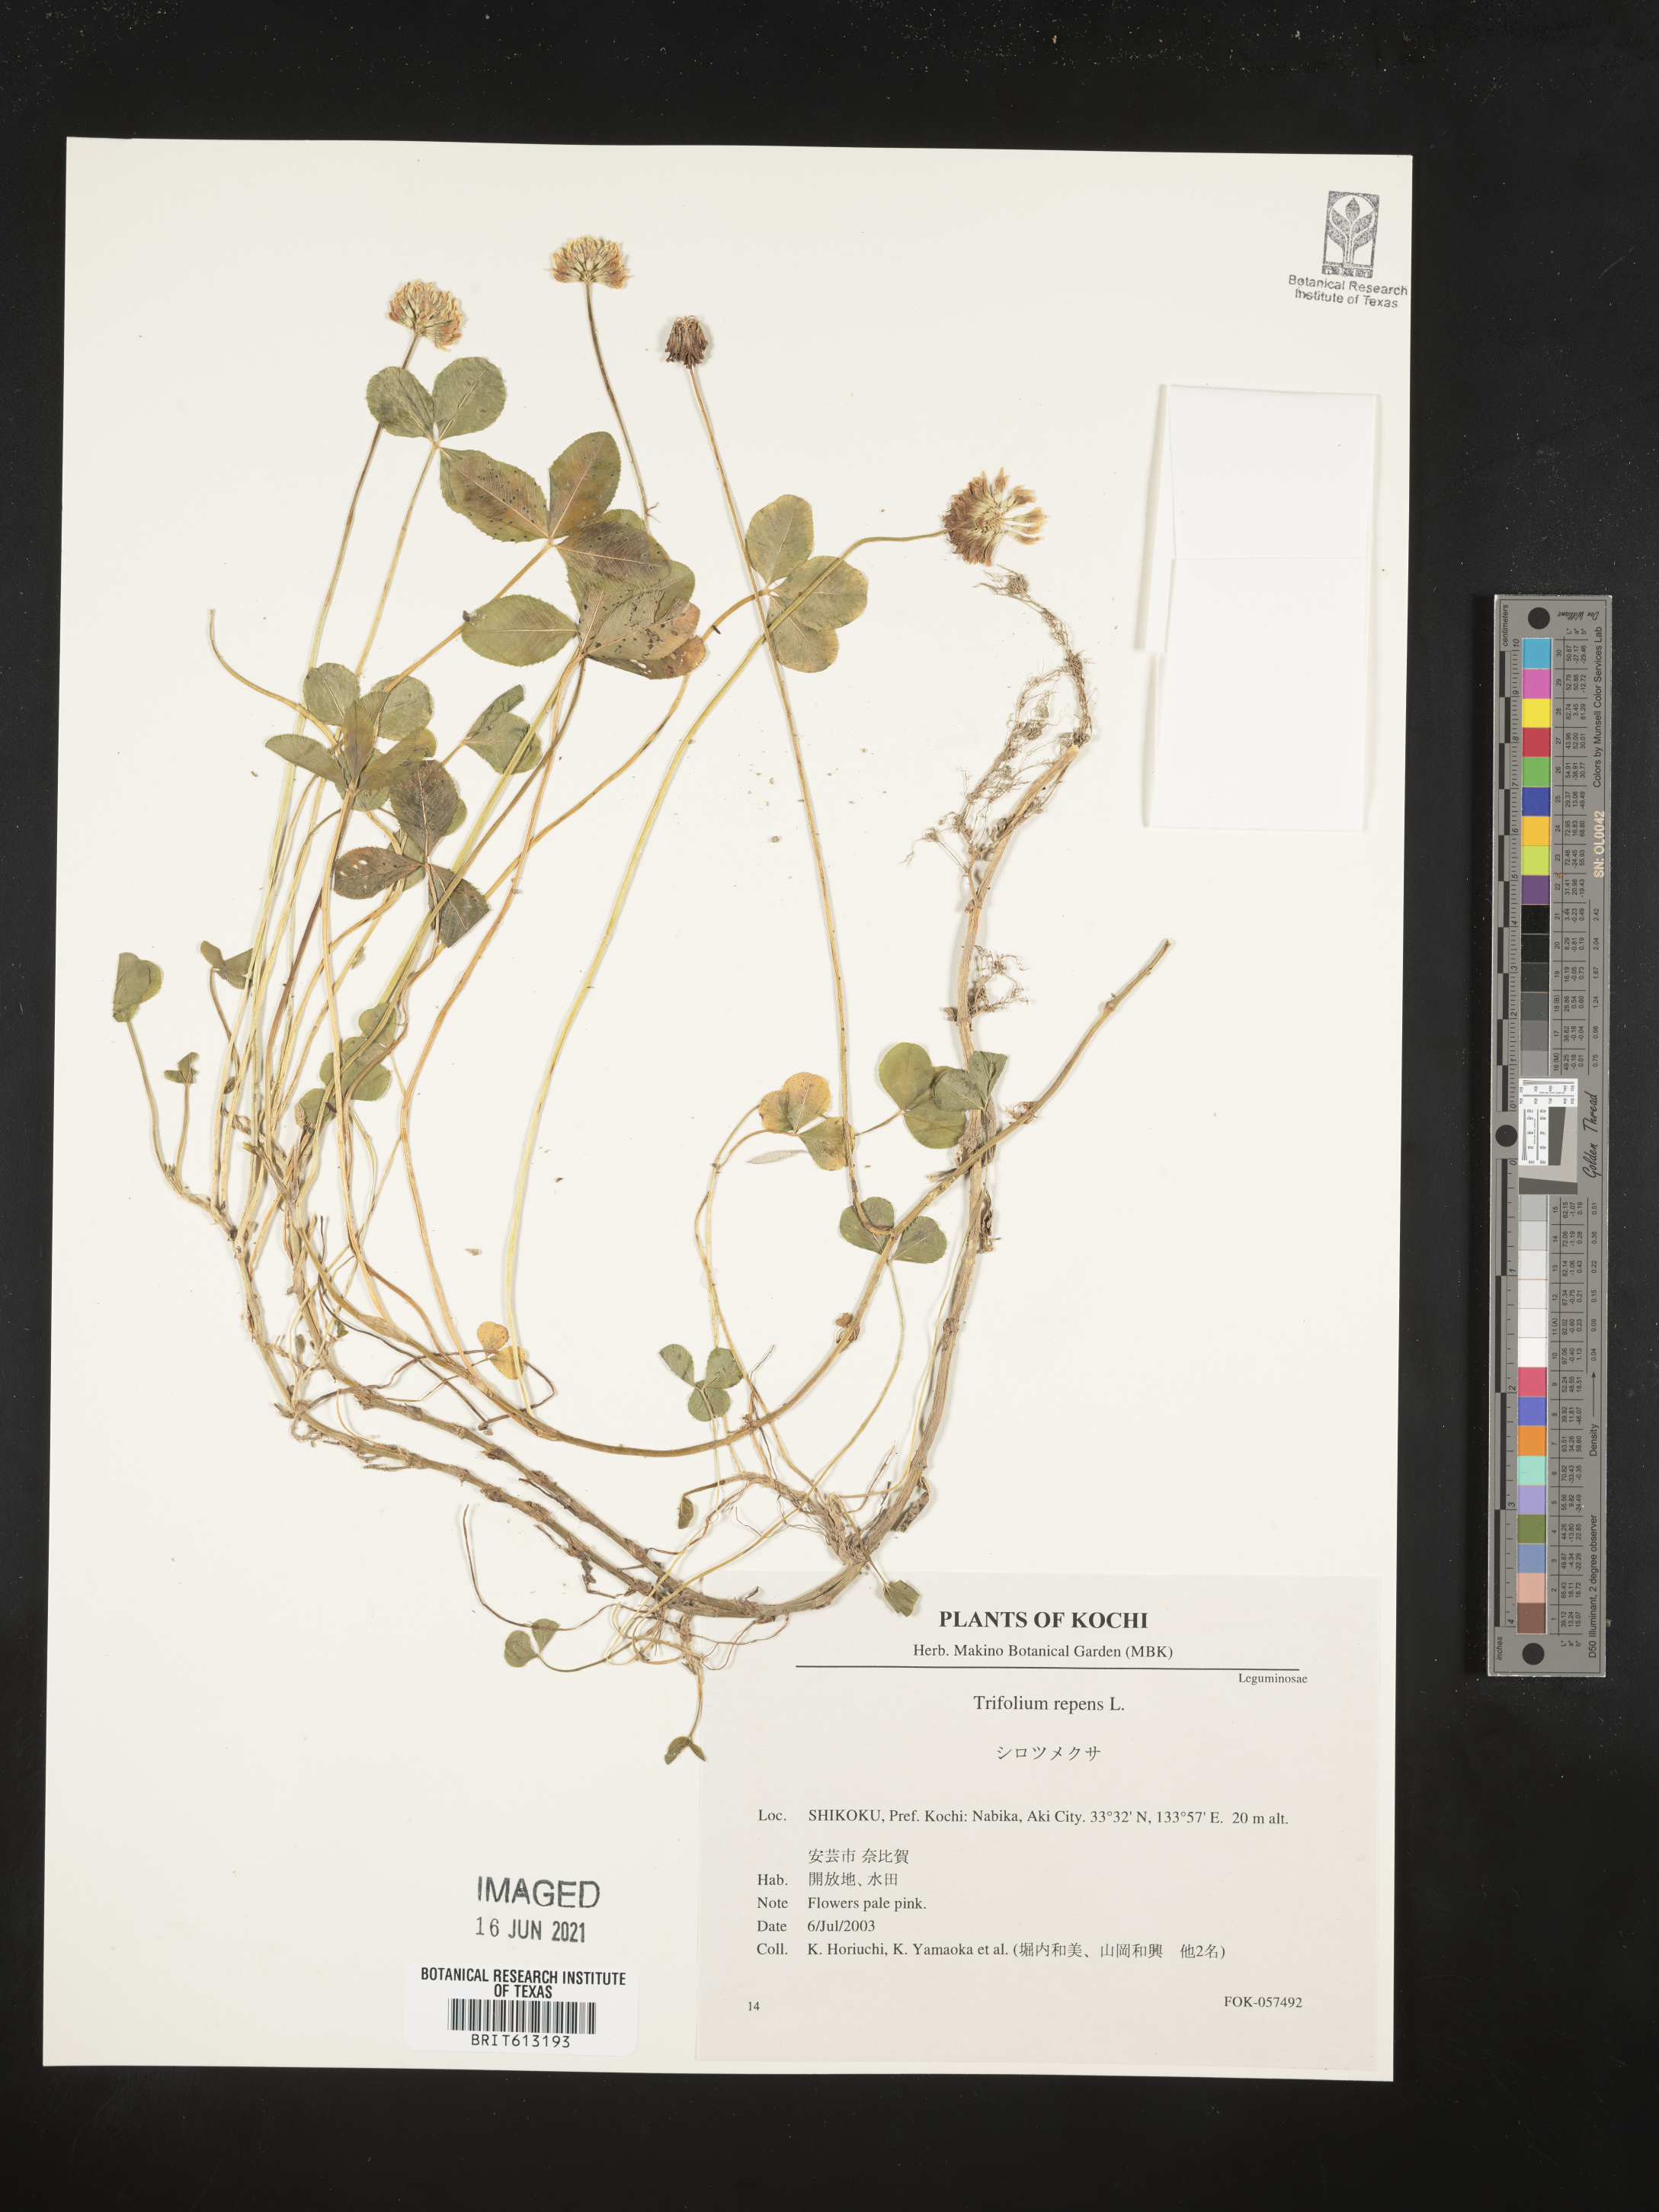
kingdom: Plantae
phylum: Tracheophyta
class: Magnoliopsida
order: Fabales
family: Fabaceae
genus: Trifolium
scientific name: Trifolium repens
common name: White clover
